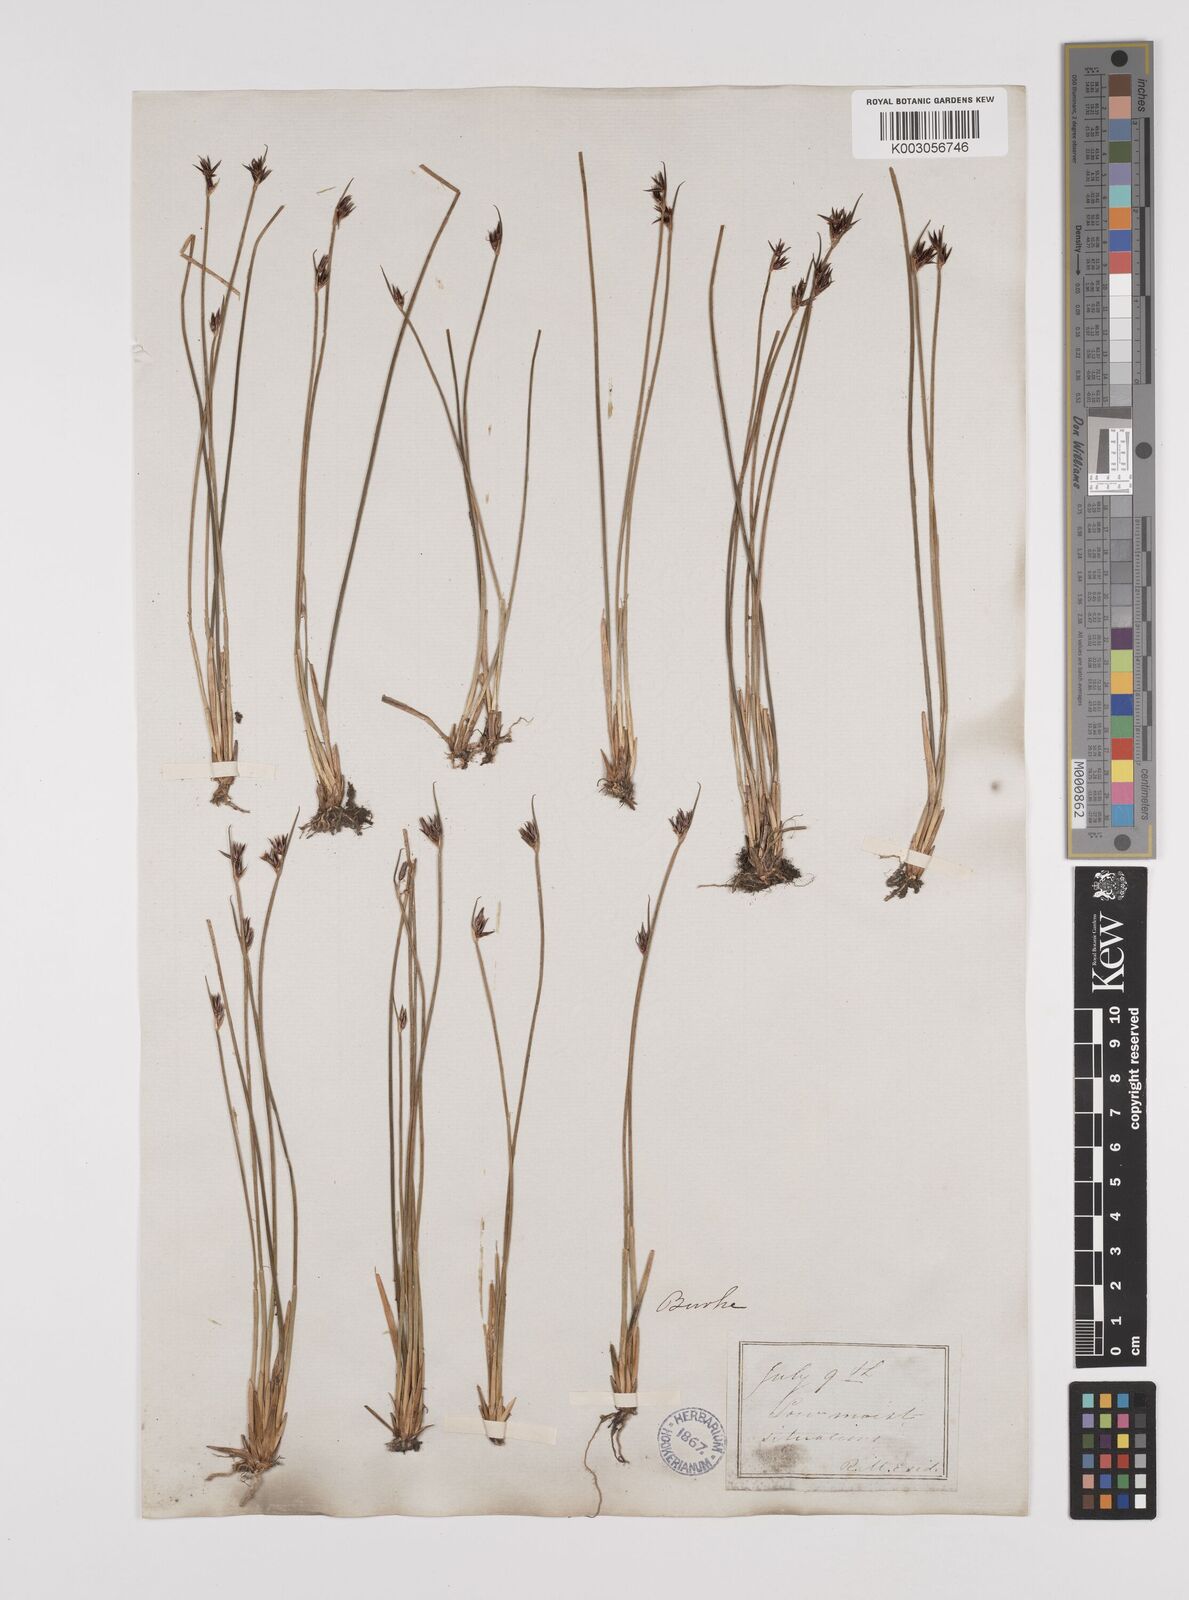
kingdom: Plantae
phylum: Tracheophyta
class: Liliopsida
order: Poales
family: Juncaceae
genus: Juncus
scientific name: Juncus drummondii
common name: Drummond's rush
